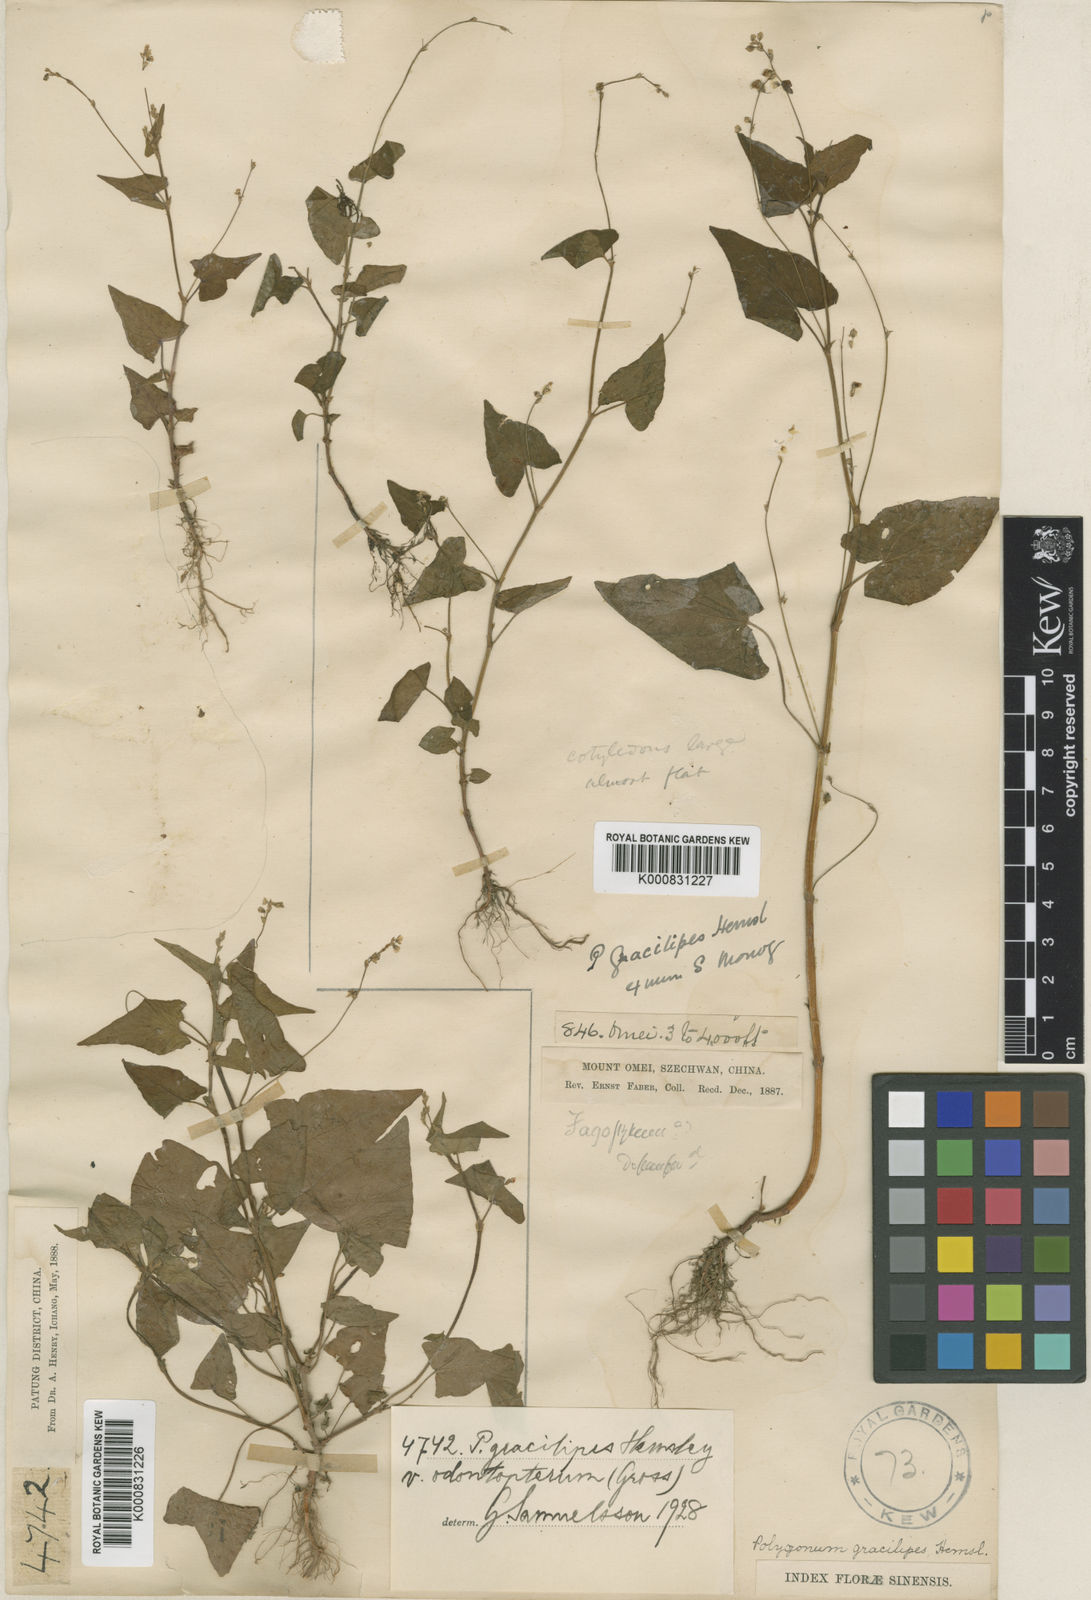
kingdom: Plantae
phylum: Tracheophyta
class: Magnoliopsida
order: Caryophyllales
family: Polygonaceae
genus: Fagopyrum
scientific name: Fagopyrum gracilipes
